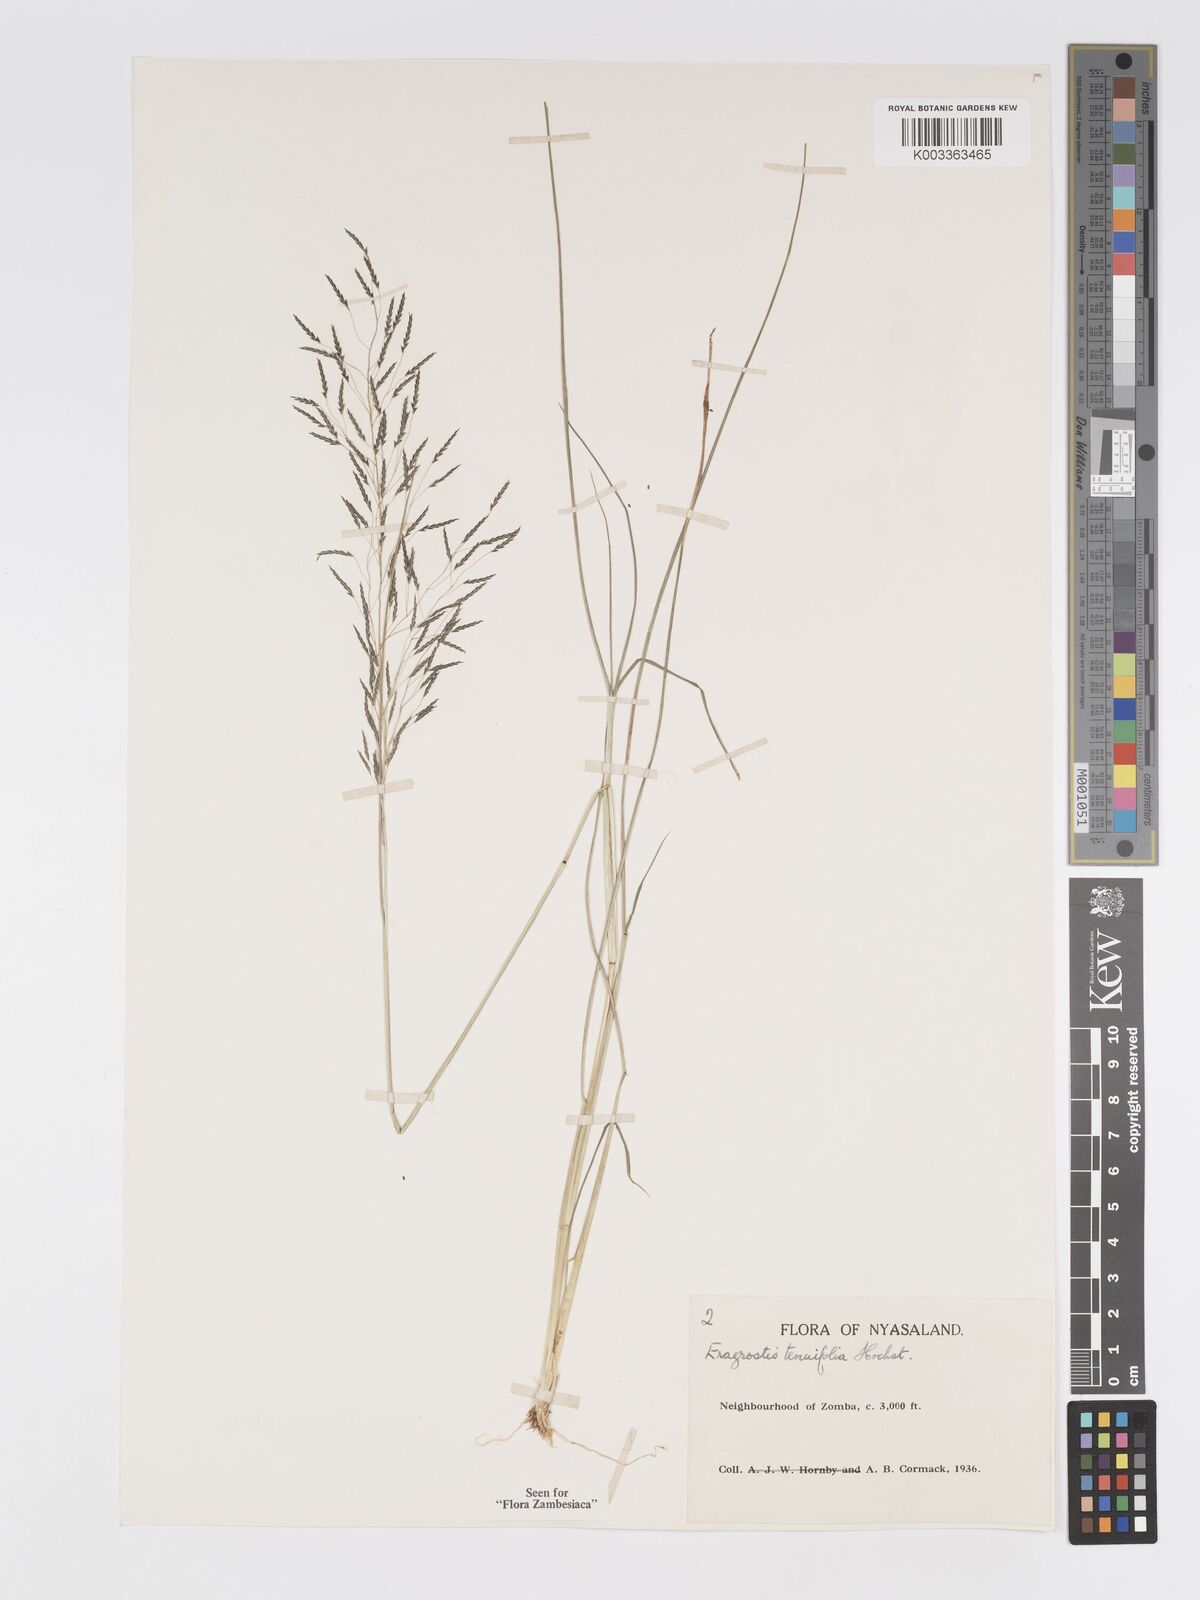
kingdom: Plantae
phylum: Tracheophyta
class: Liliopsida
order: Poales
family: Poaceae
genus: Eragrostis
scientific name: Eragrostis tenuifolia
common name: Elastic grass
